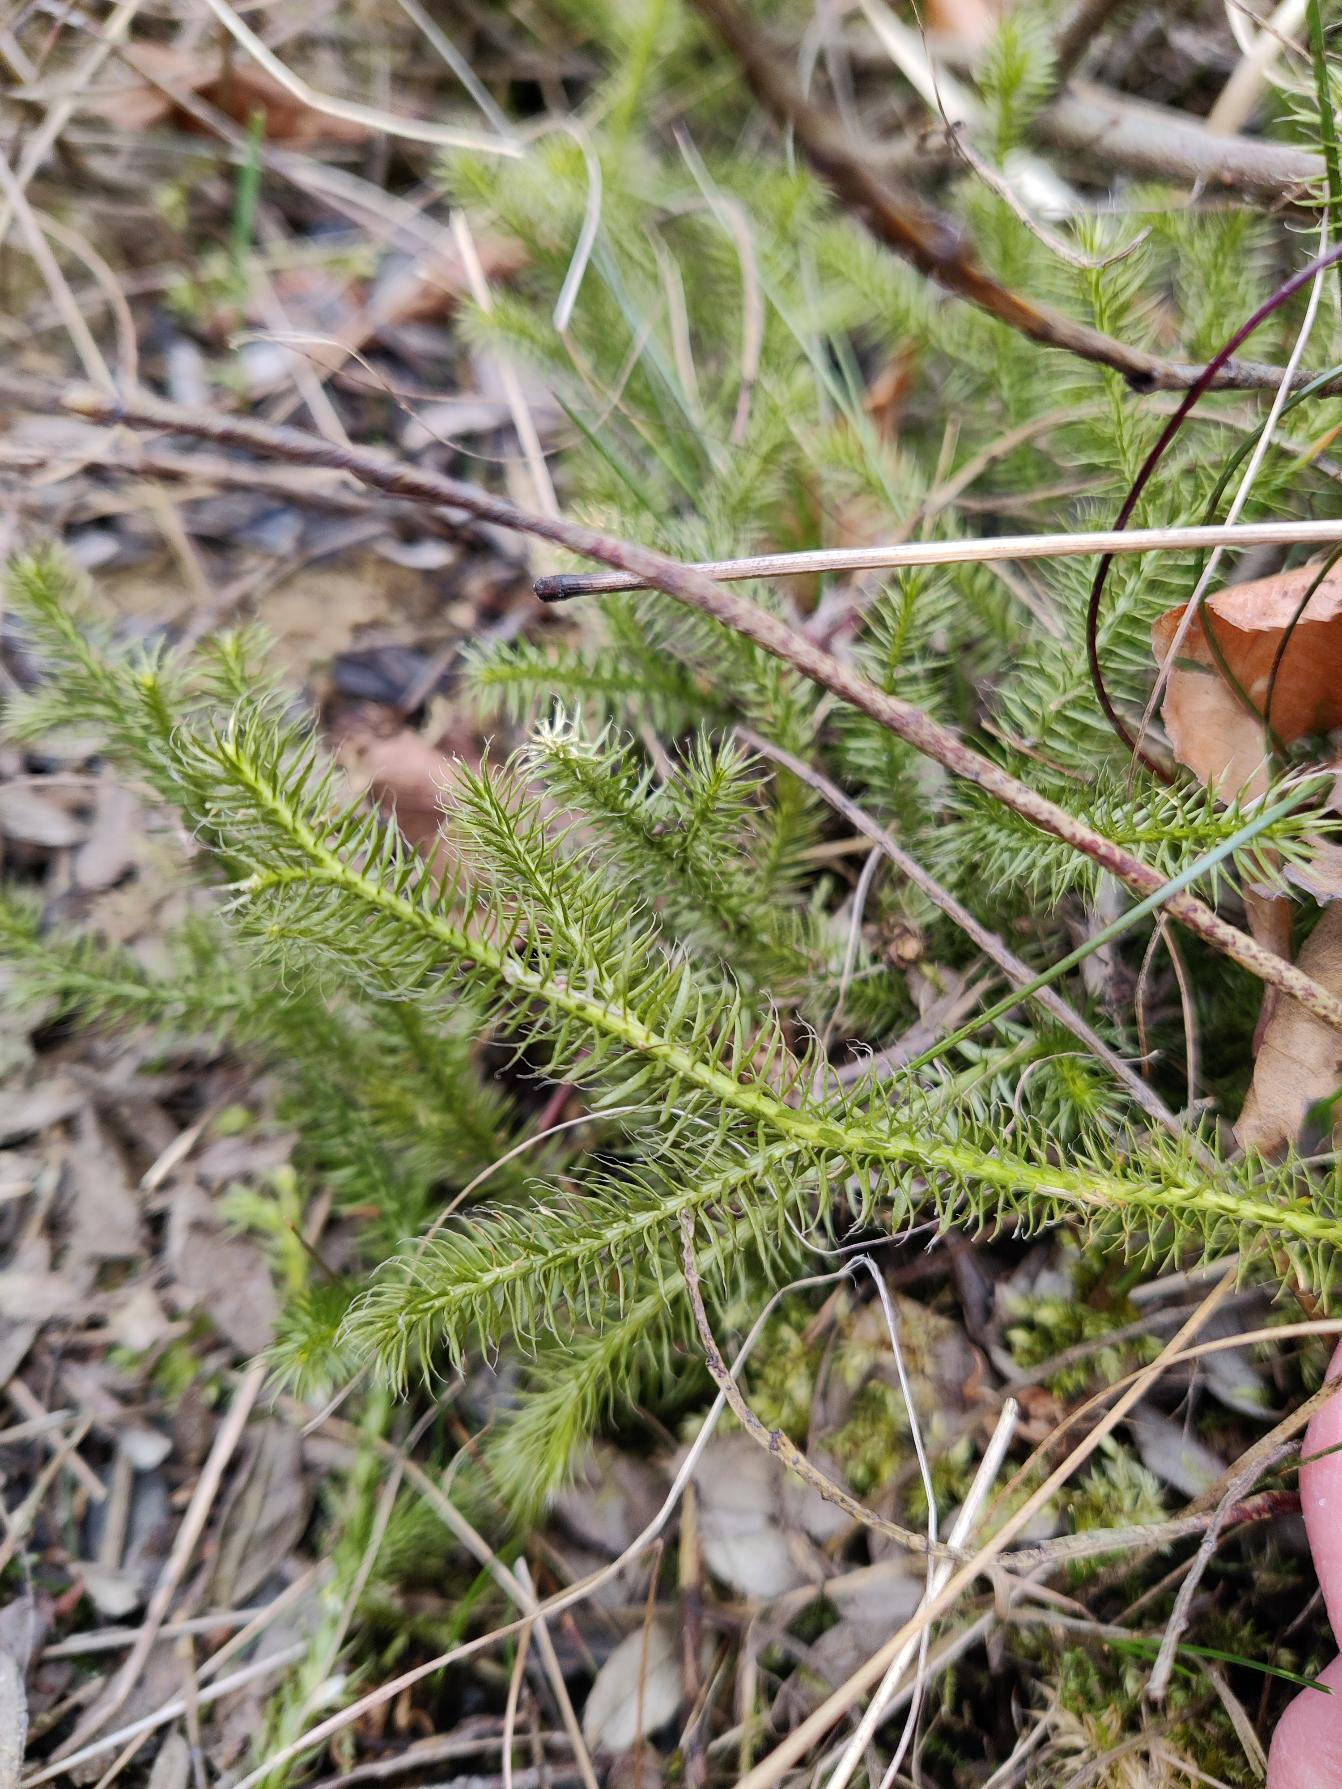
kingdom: Plantae
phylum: Tracheophyta
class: Lycopodiopsida
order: Lycopodiales
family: Lycopodiaceae
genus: Lycopodium
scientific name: Lycopodium clavatum
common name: Almindelig ulvefod
